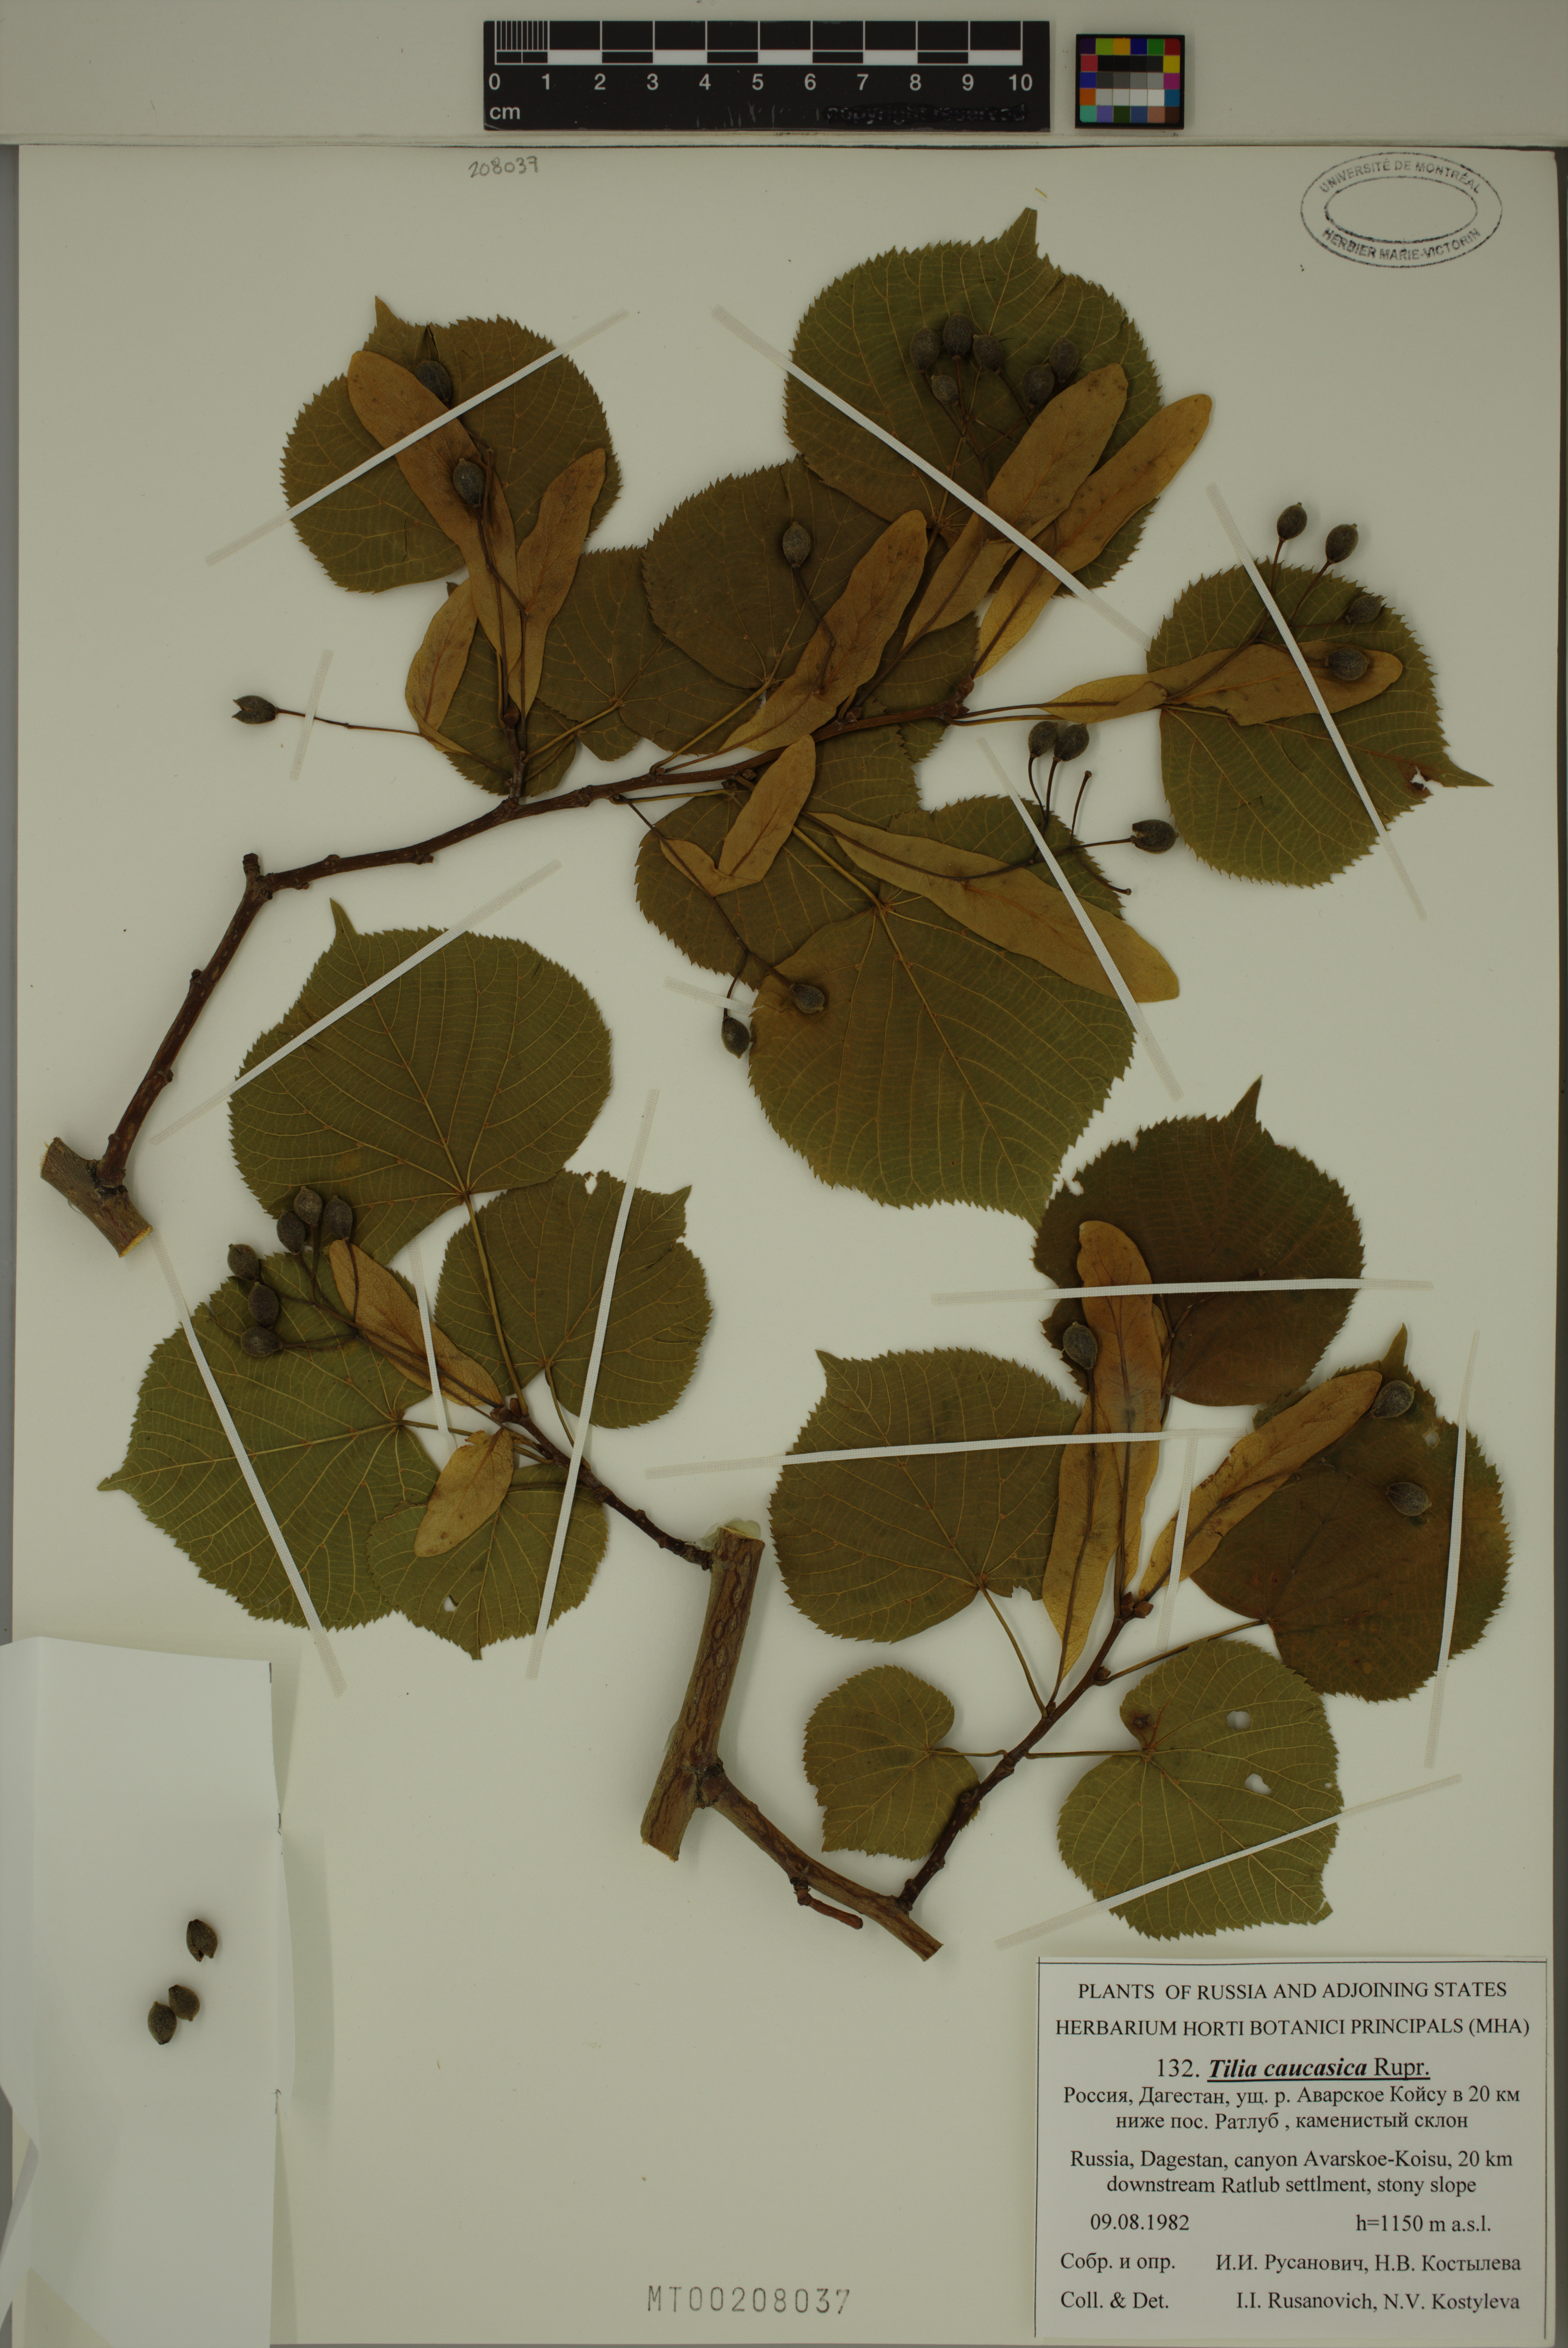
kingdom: Plantae
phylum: Tracheophyta
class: Magnoliopsida
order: Malvales
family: Malvaceae
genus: Tilia
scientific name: Tilia dasystyla
